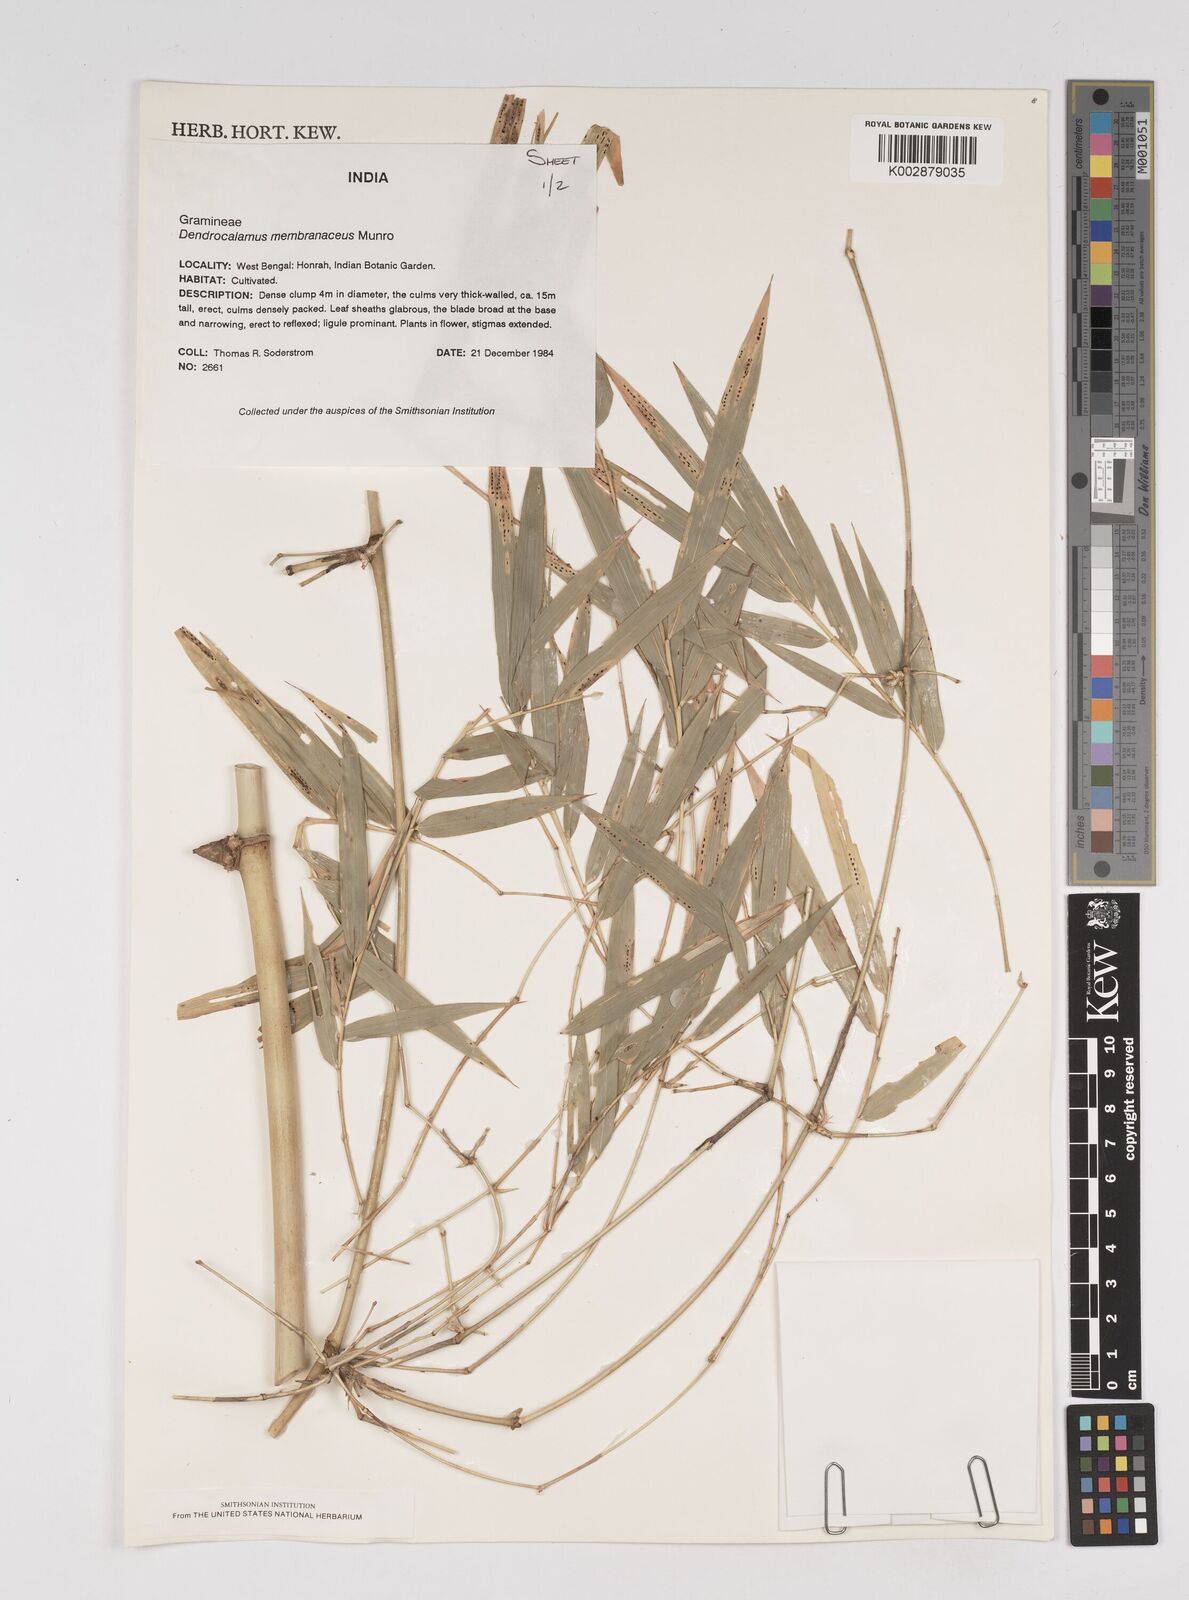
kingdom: Plantae
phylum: Tracheophyta
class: Liliopsida
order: Poales
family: Poaceae
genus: Dendrocalamus
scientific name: Dendrocalamus
